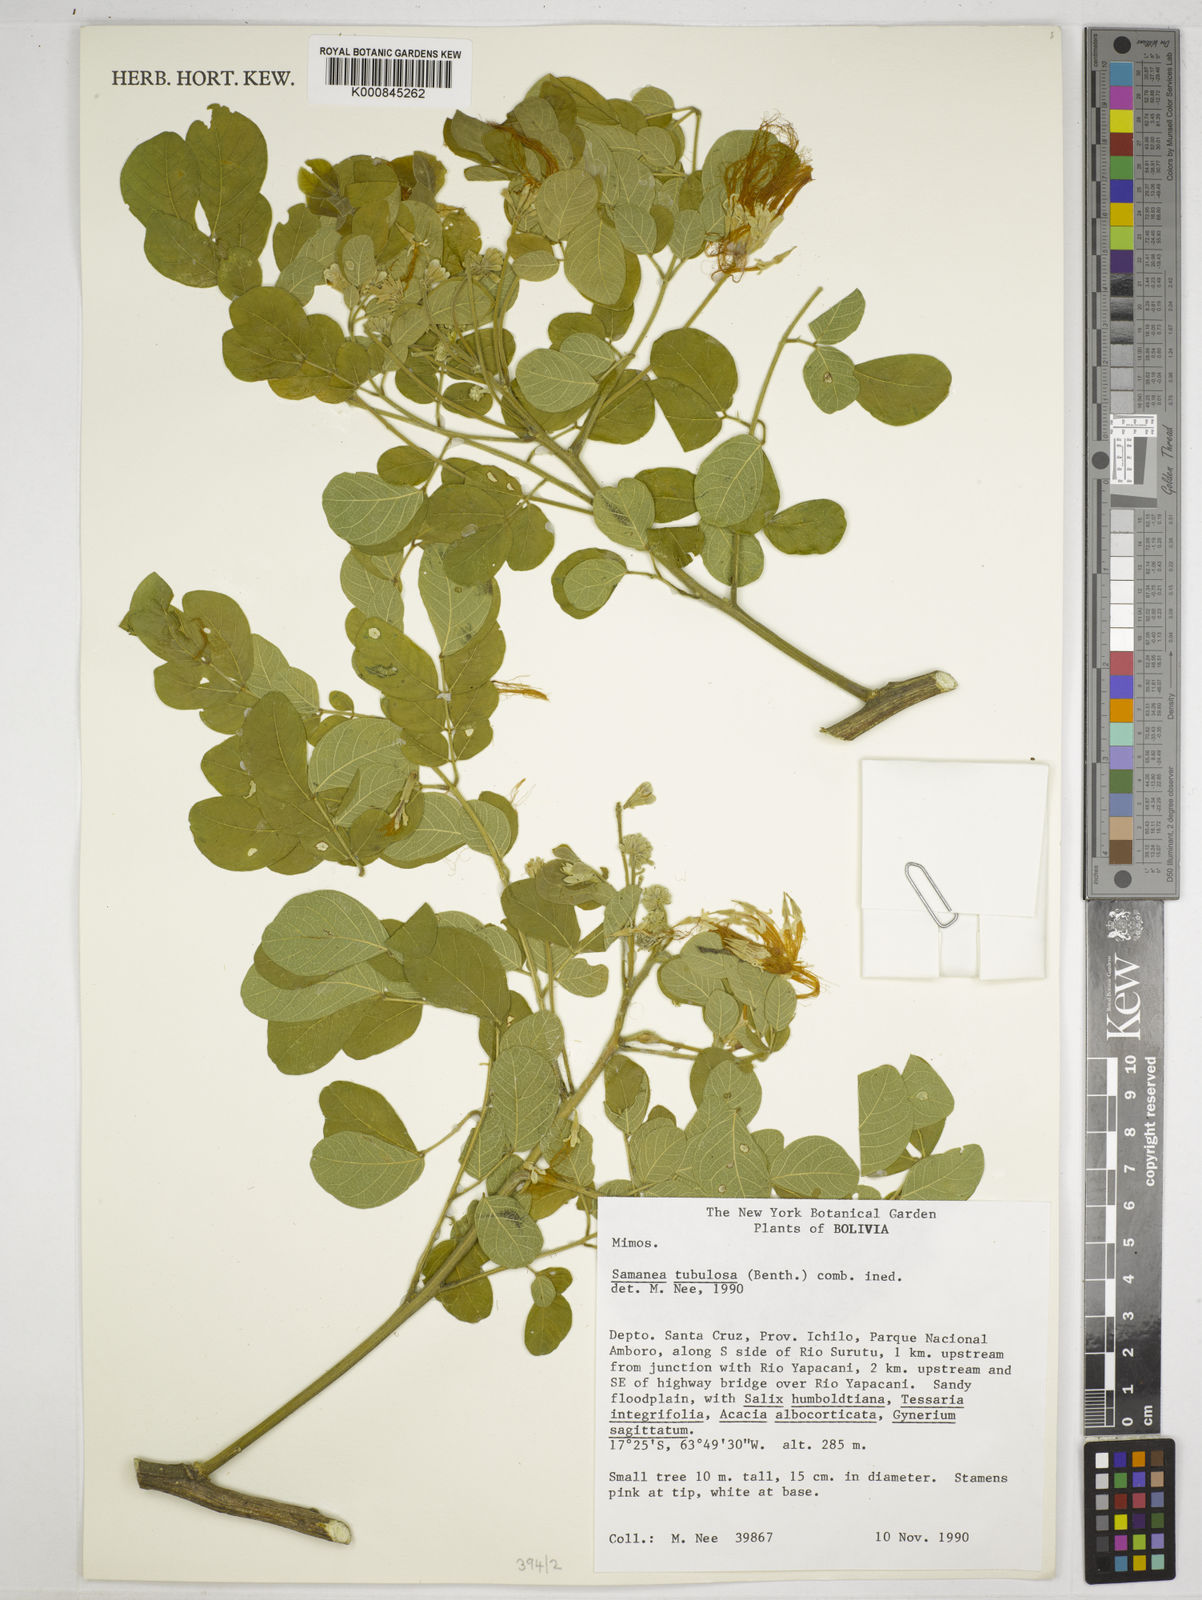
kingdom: Plantae
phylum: Tracheophyta
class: Magnoliopsida
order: Fabales
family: Fabaceae
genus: Samanea
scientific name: Samanea tubulosa
